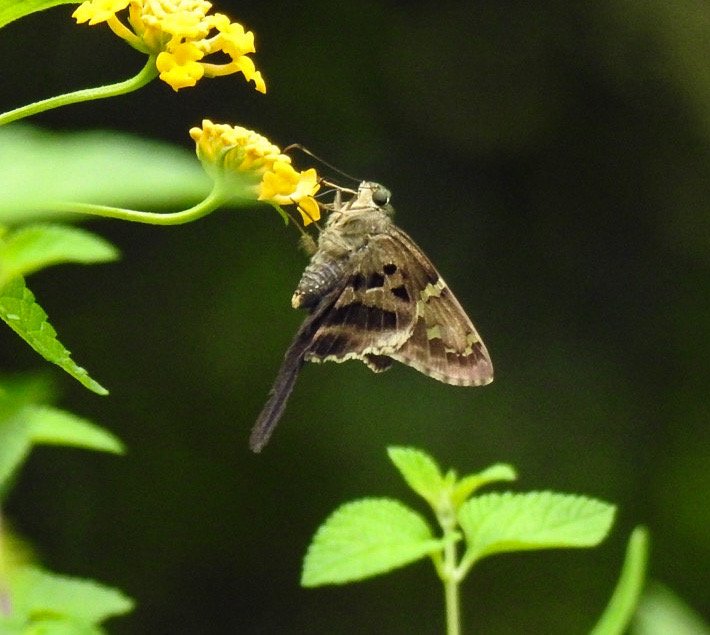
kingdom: Animalia
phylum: Arthropoda
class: Insecta
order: Lepidoptera
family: Hesperiidae
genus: Urbanus
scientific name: Urbanus proteus
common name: Long-tailed Skipper
